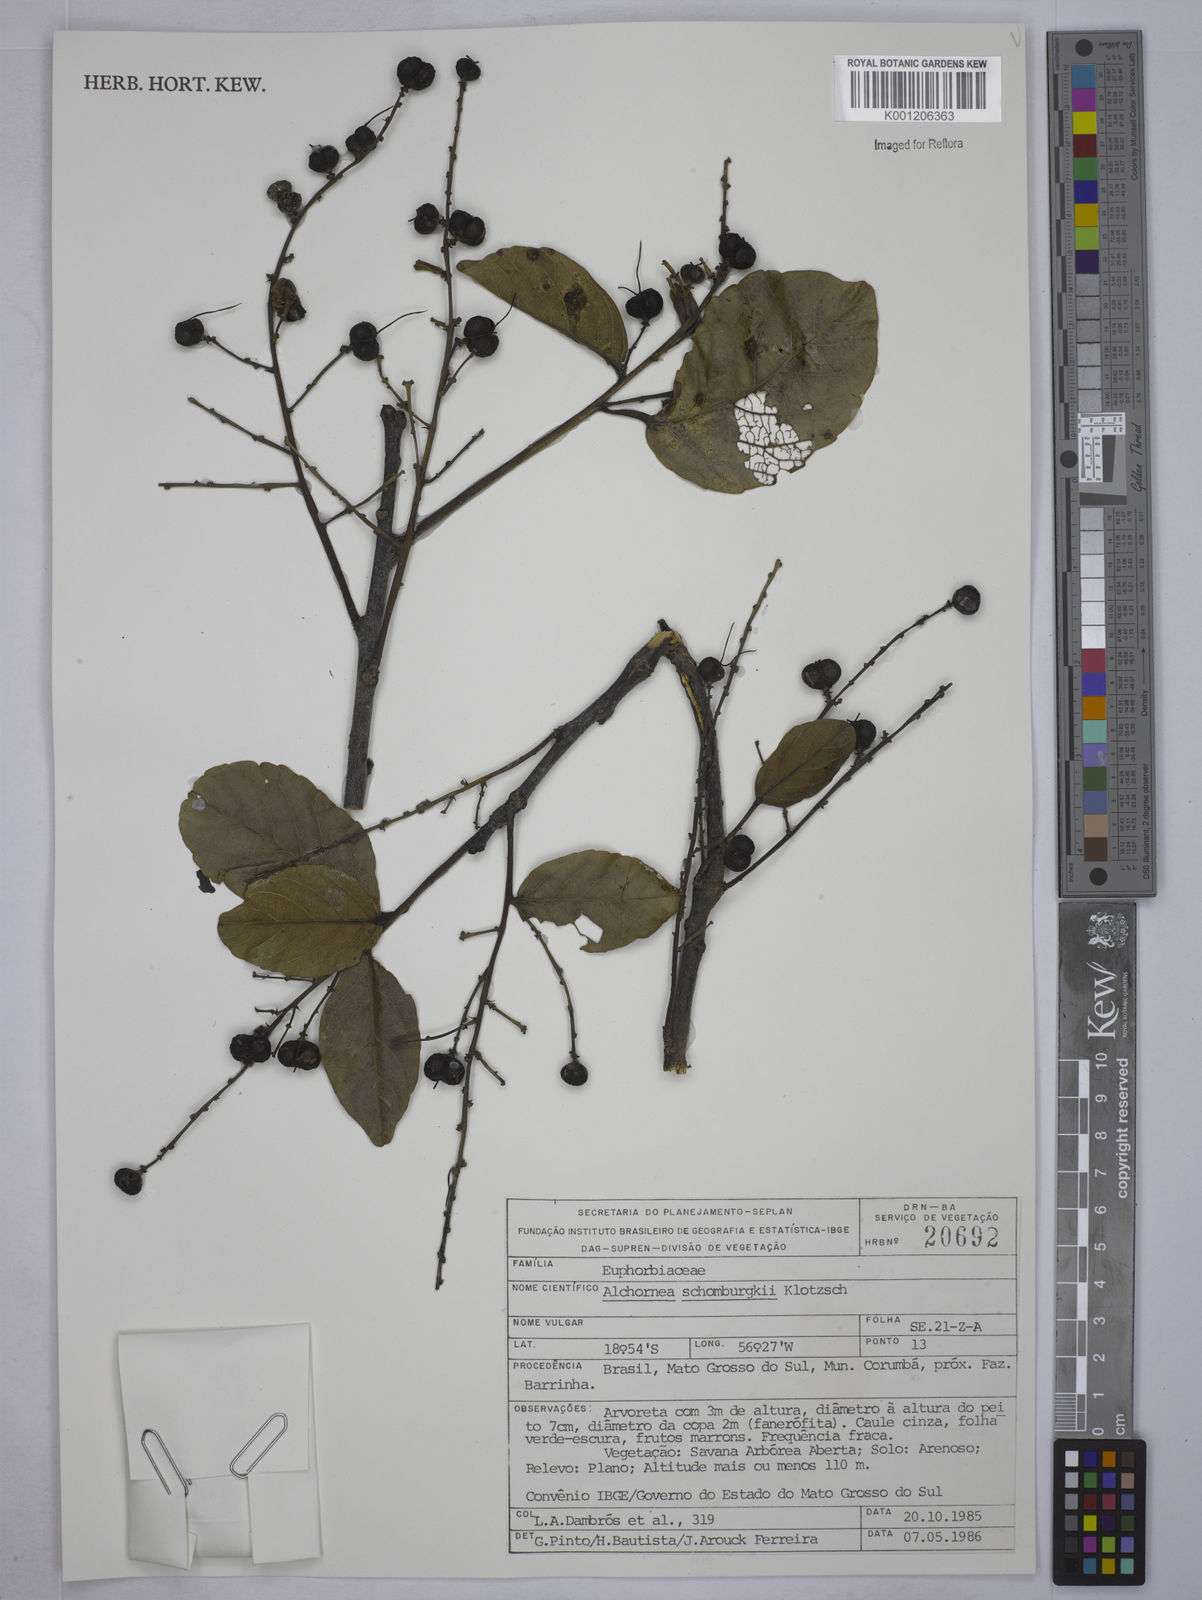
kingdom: Plantae
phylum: Tracheophyta
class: Magnoliopsida
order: Malpighiales
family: Euphorbiaceae
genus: Alchornea
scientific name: Alchornea discolor
